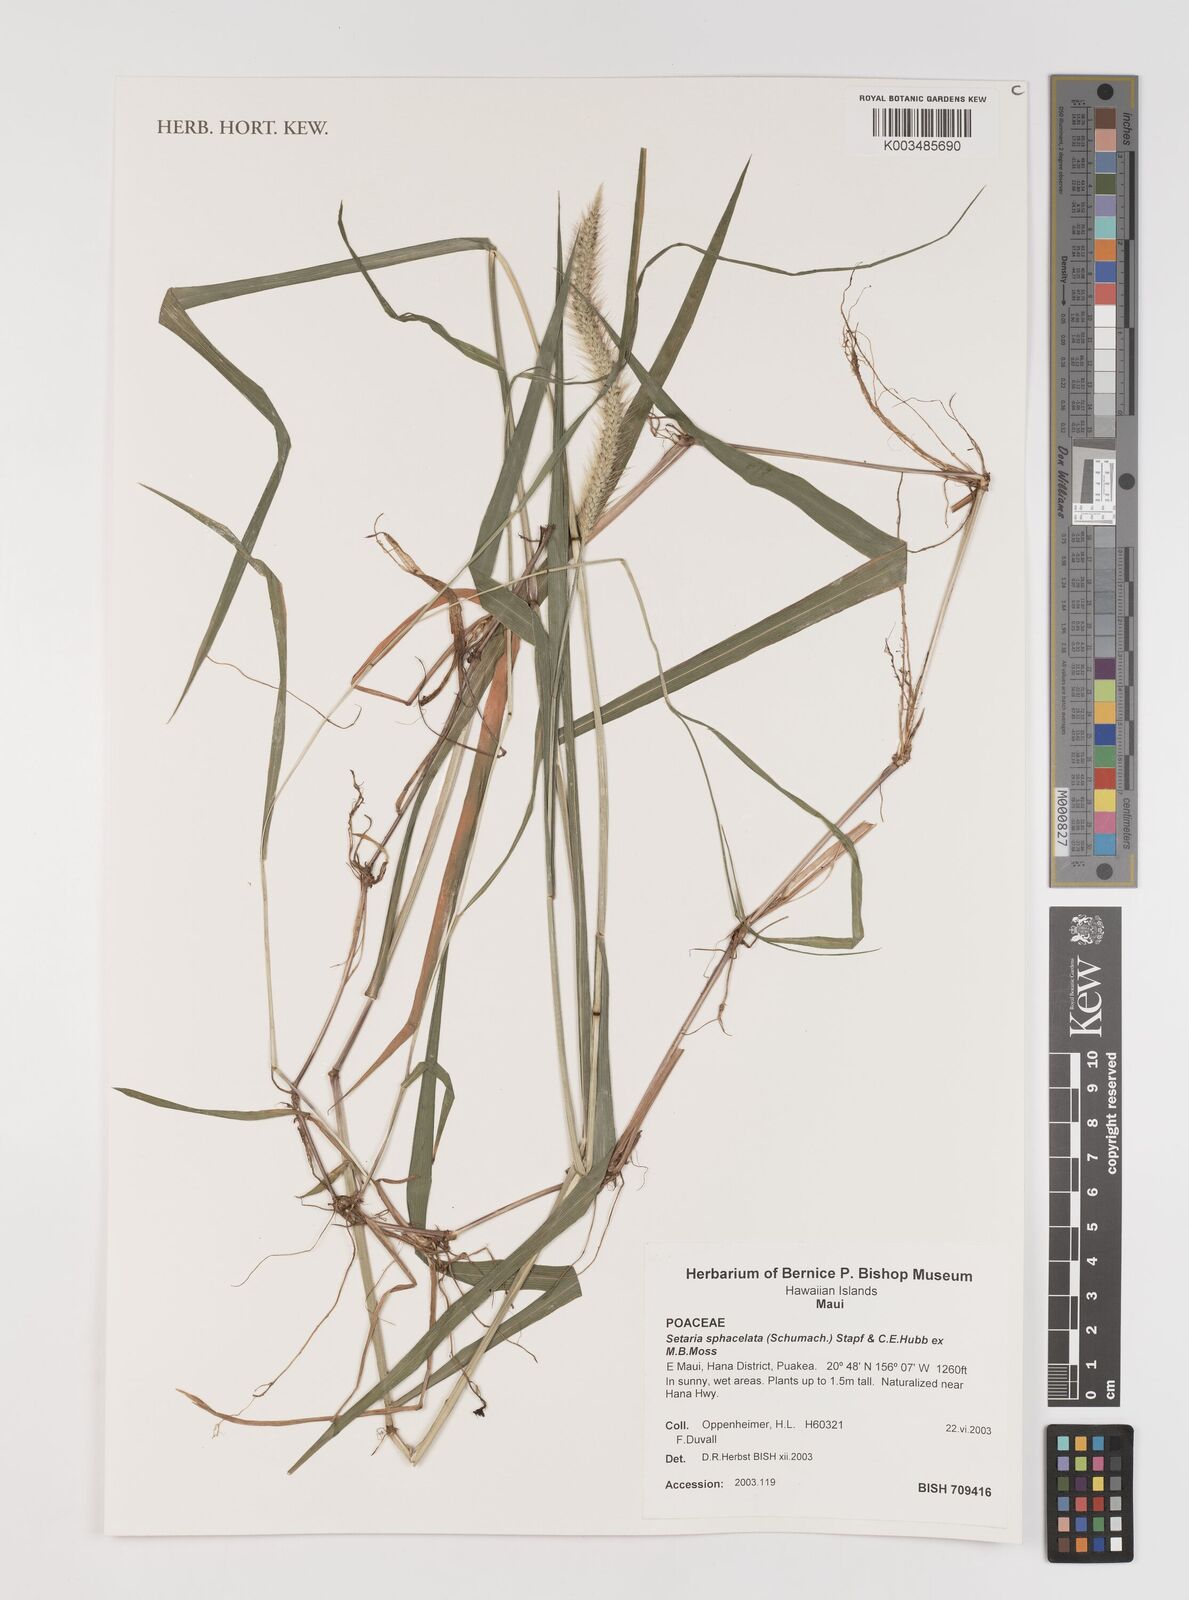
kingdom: Plantae
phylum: Tracheophyta
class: Liliopsida
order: Poales
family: Poaceae
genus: Setaria
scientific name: Setaria sphacelata
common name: African bristlegrass
